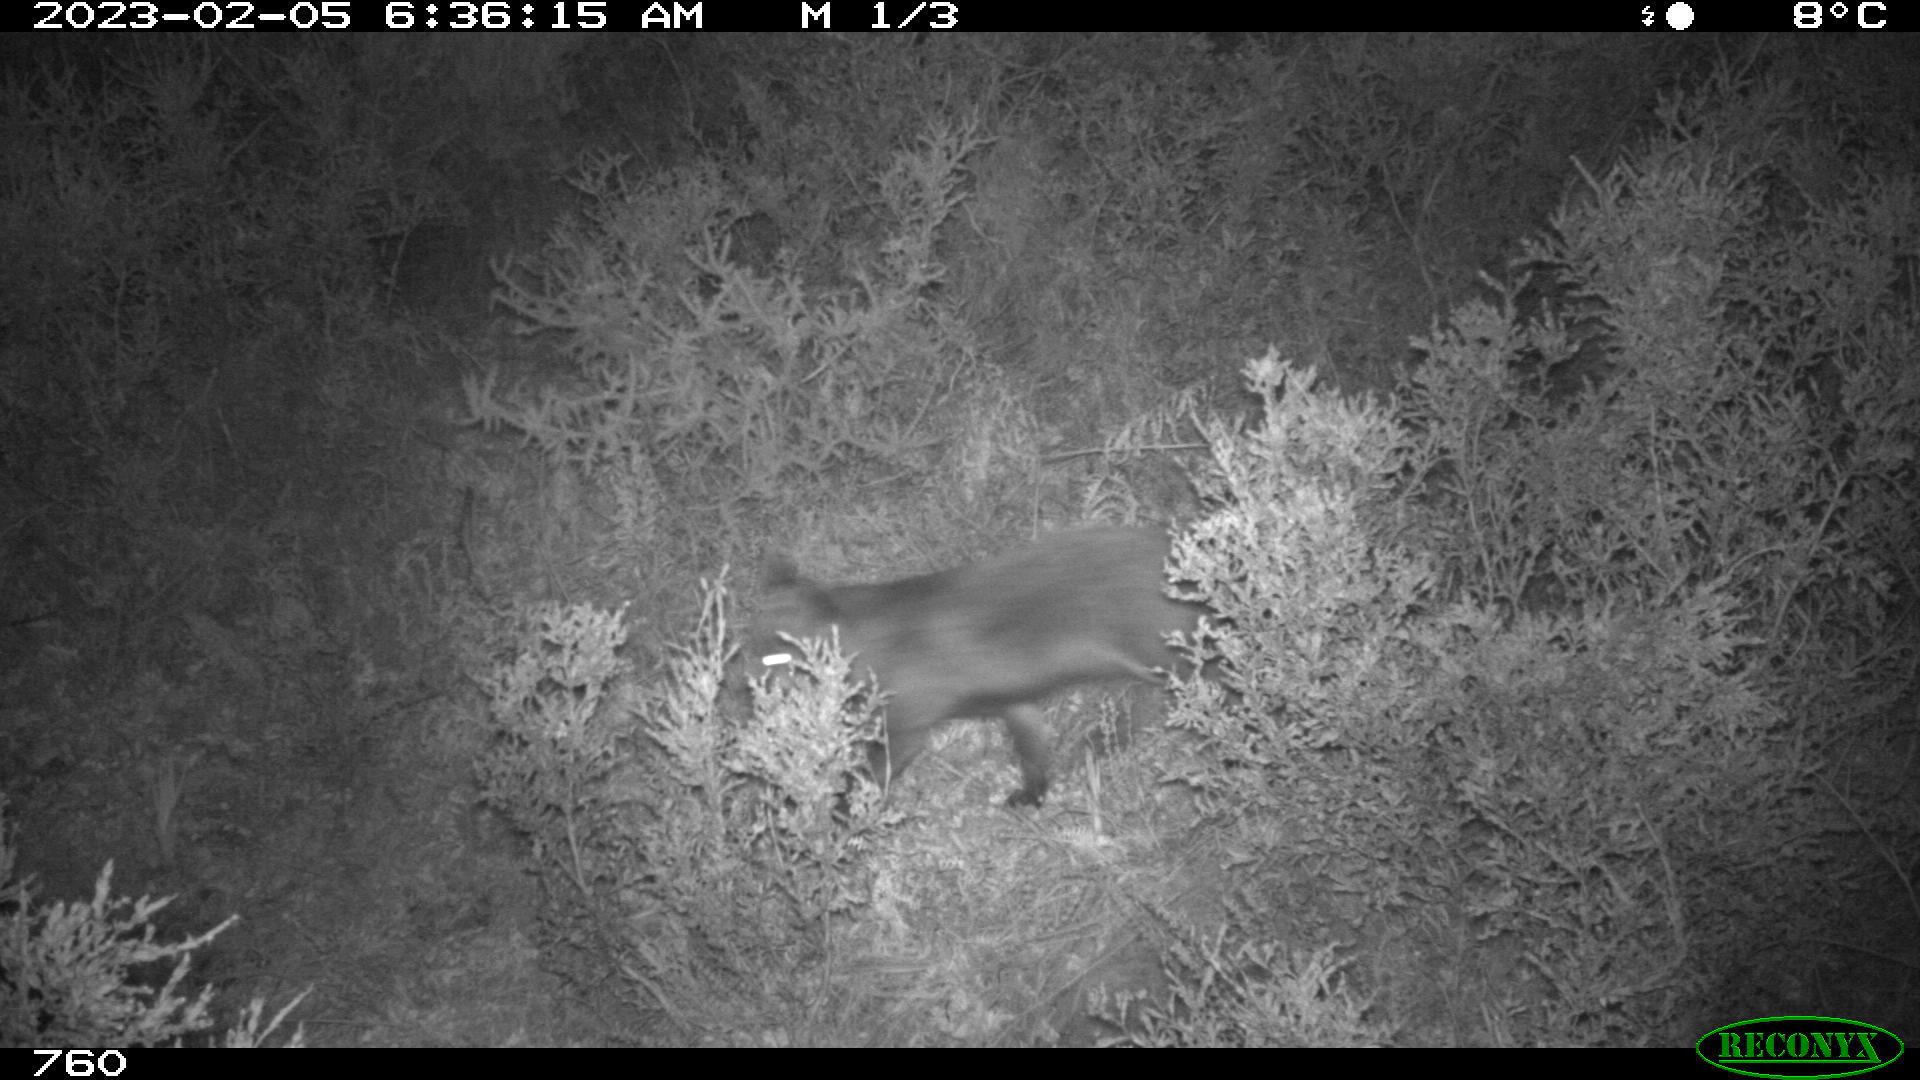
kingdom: Animalia
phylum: Chordata
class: Mammalia
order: Carnivora
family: Canidae
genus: Vulpes
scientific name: Vulpes vulpes
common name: Red fox
